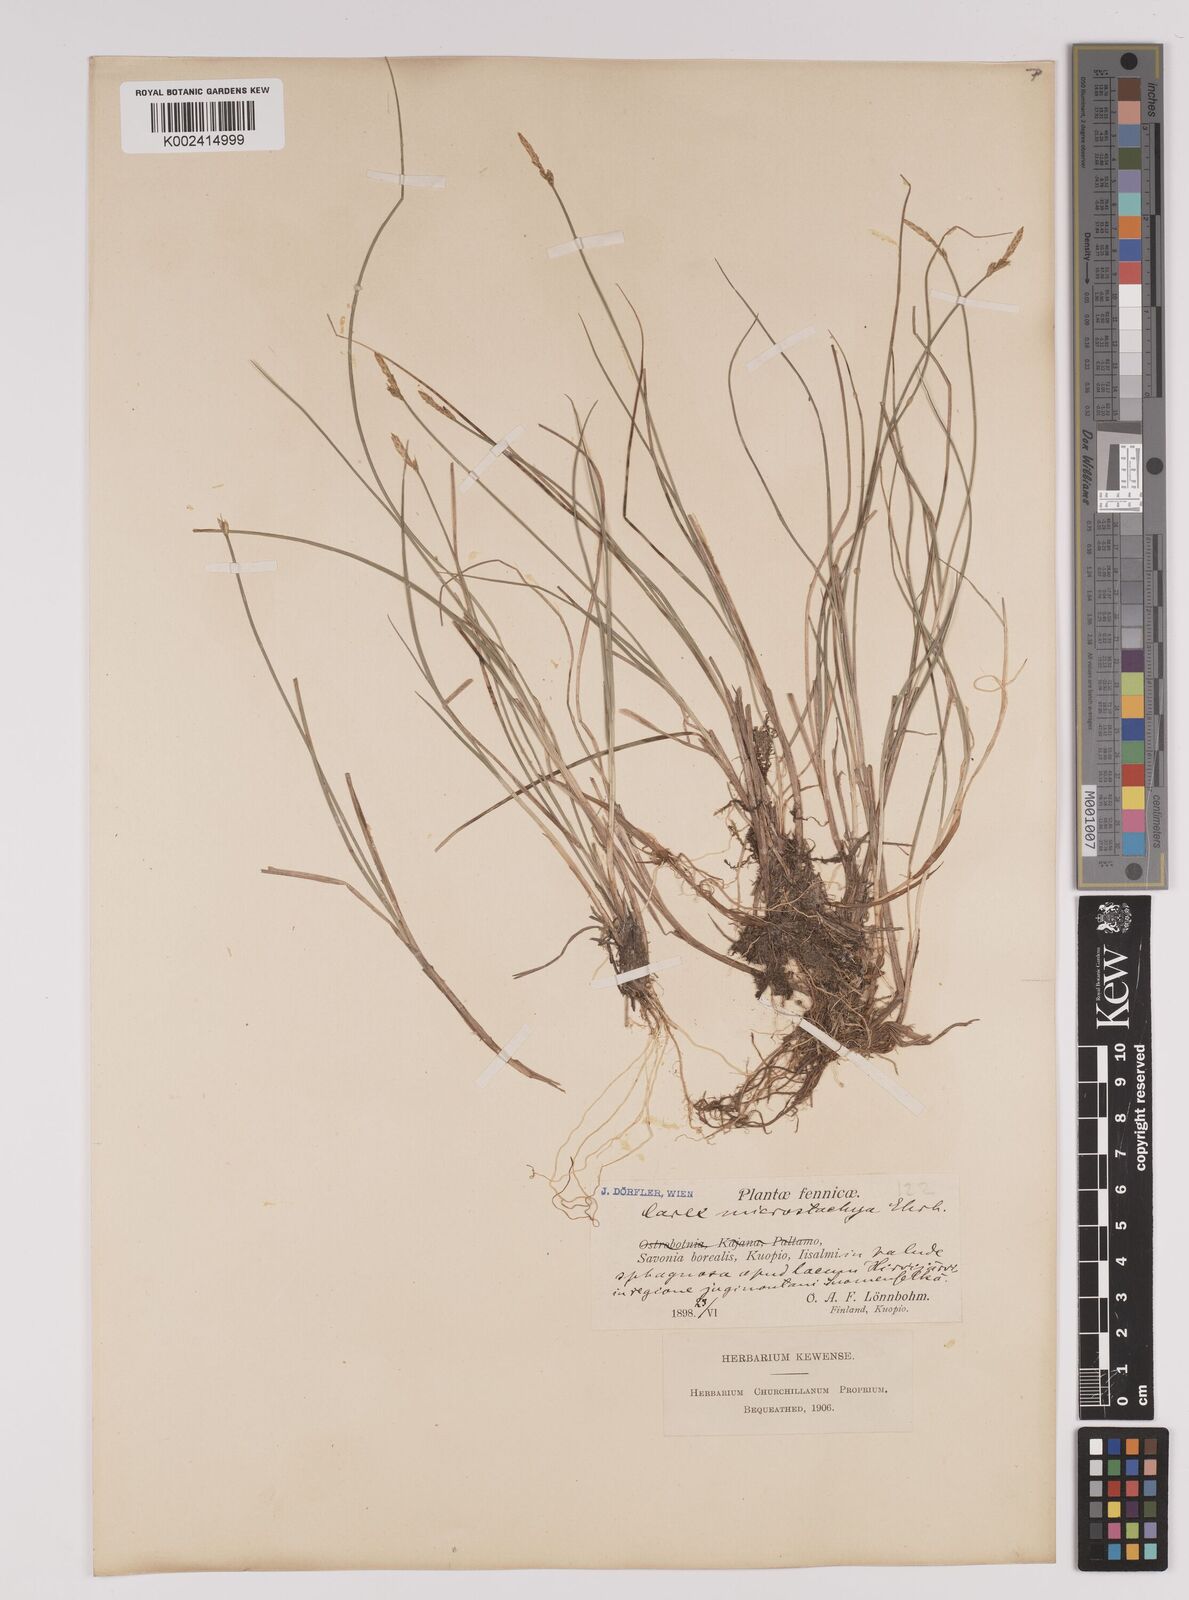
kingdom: Plantae
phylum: Tracheophyta
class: Liliopsida
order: Poales
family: Cyperaceae
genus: Carex
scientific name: Carex dioica
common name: Dioecious sedge
